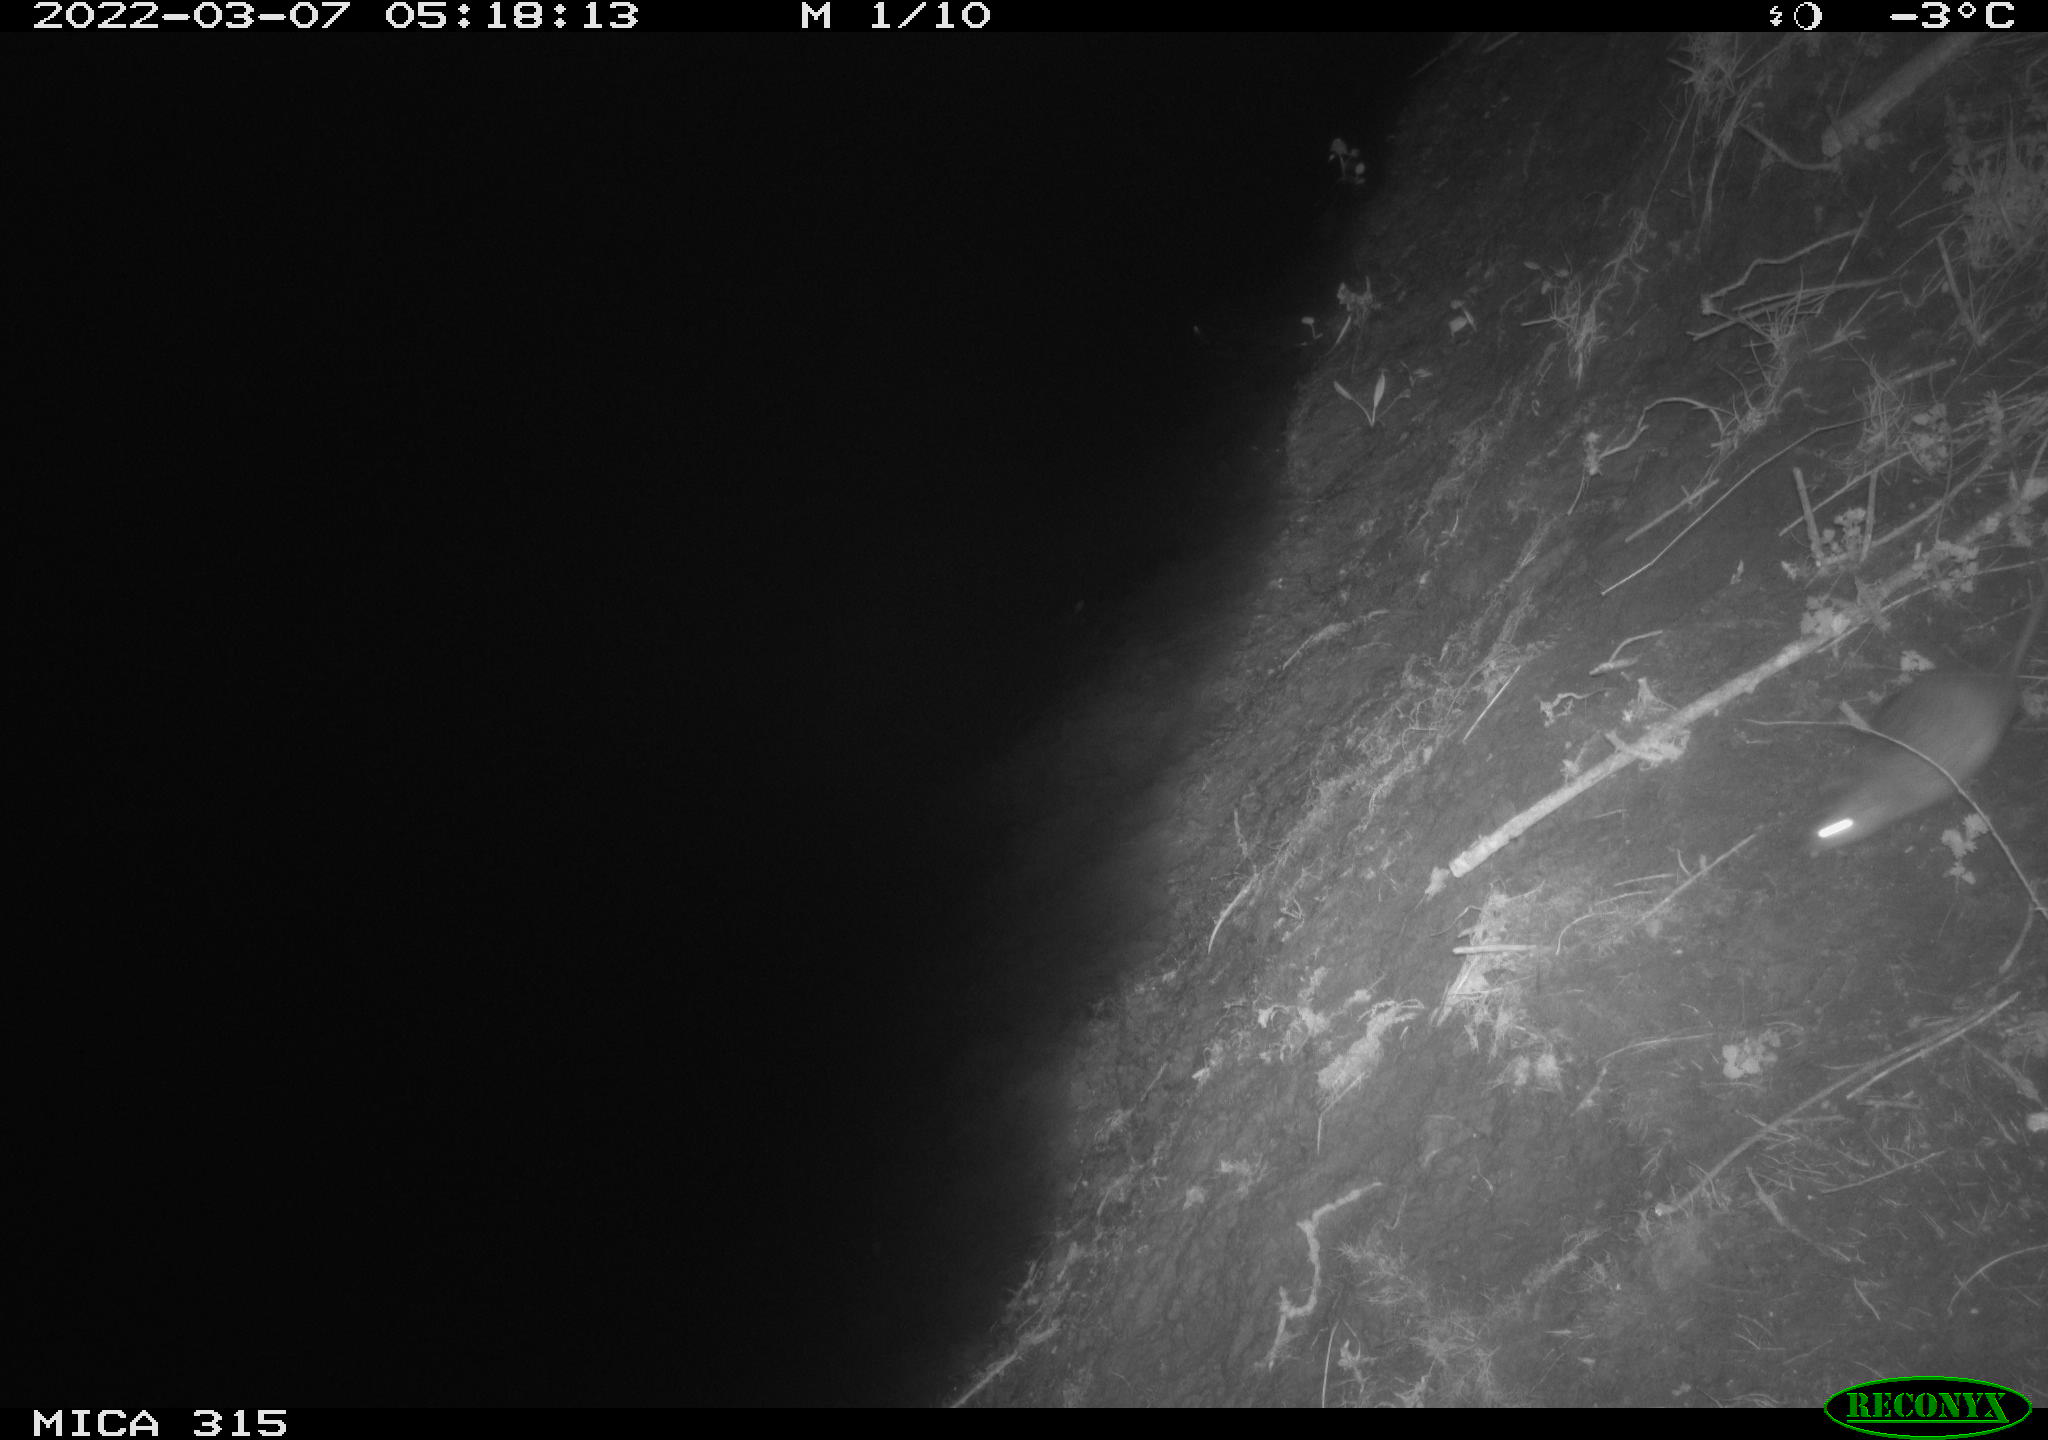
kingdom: Animalia
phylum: Chordata
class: Mammalia
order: Rodentia
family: Muridae
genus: Rattus
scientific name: Rattus norvegicus
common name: Brown rat
